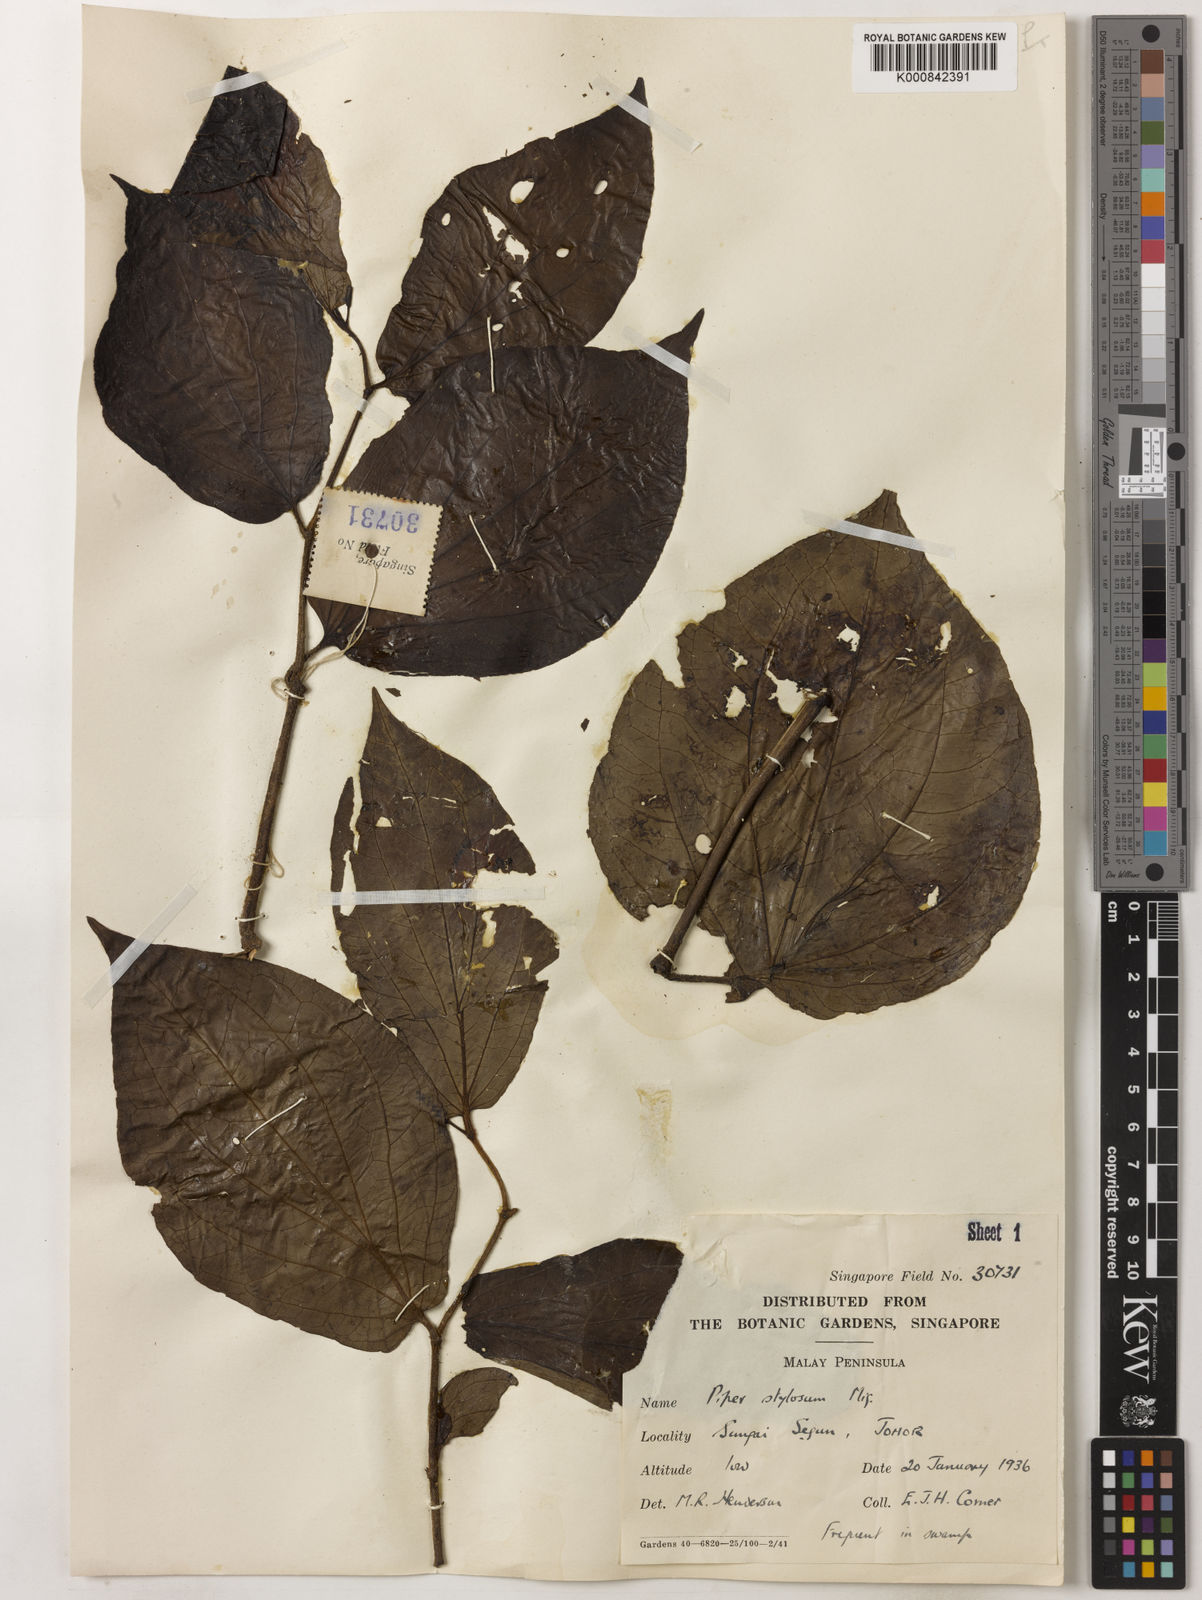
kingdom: Plantae
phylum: Tracheophyta
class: Magnoliopsida
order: Piperales
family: Piperaceae
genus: Piper
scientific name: Piper rostratum
